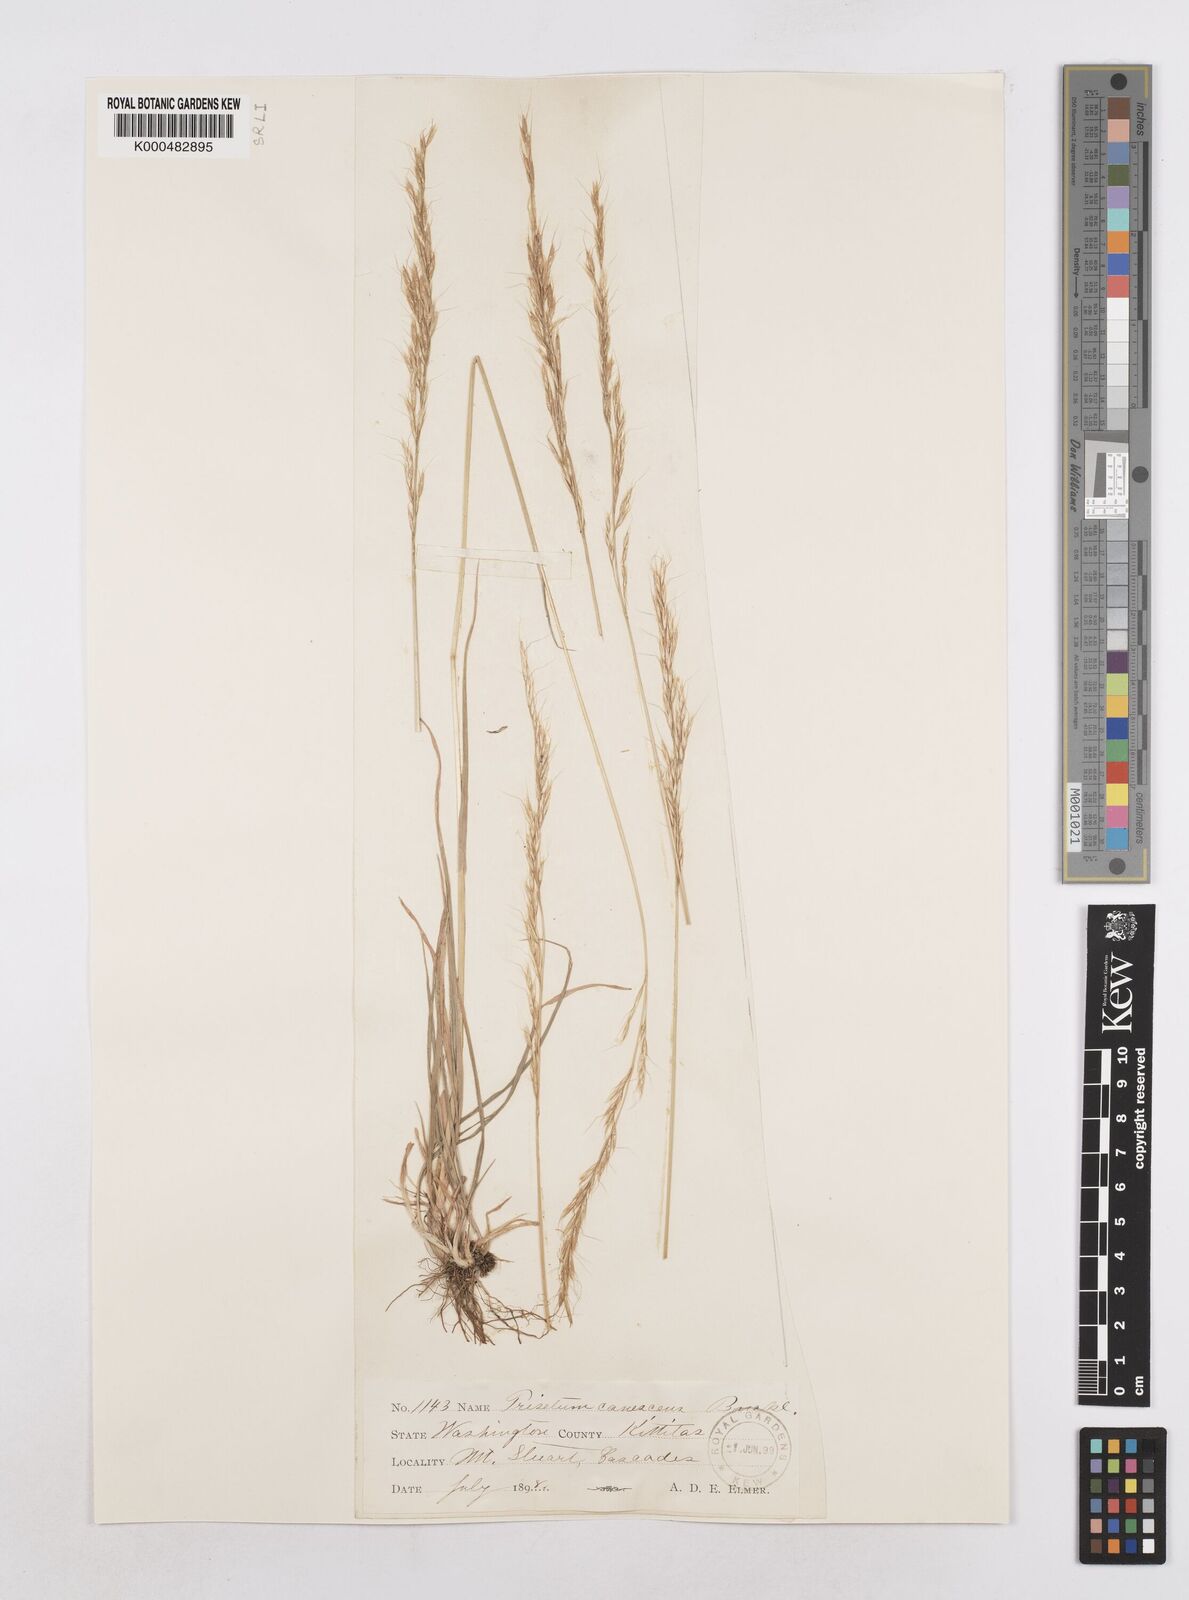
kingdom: Plantae
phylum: Tracheophyta
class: Liliopsida
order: Poales
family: Poaceae
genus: Graphephorum
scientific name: Graphephorum canescens
